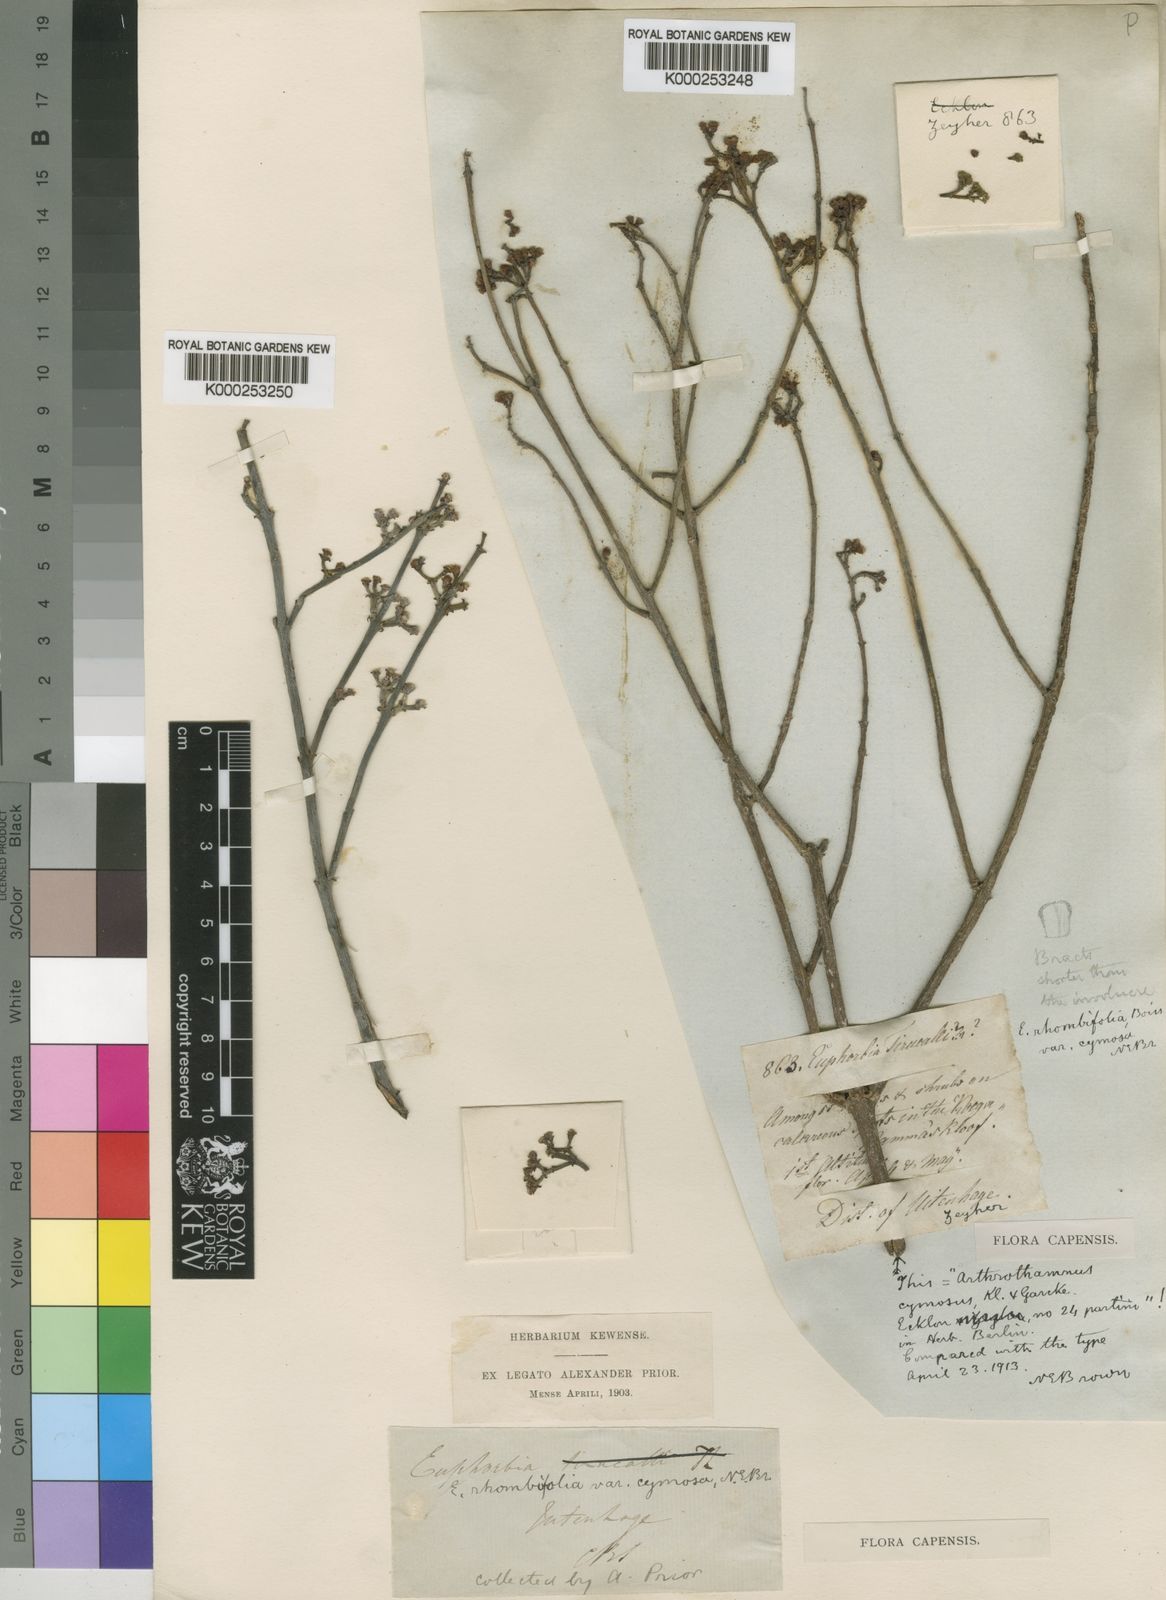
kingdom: Plantae
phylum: Tracheophyta
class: Magnoliopsida
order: Malpighiales
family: Euphorbiaceae
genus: Euphorbia
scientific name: Euphorbia rhombifolia
